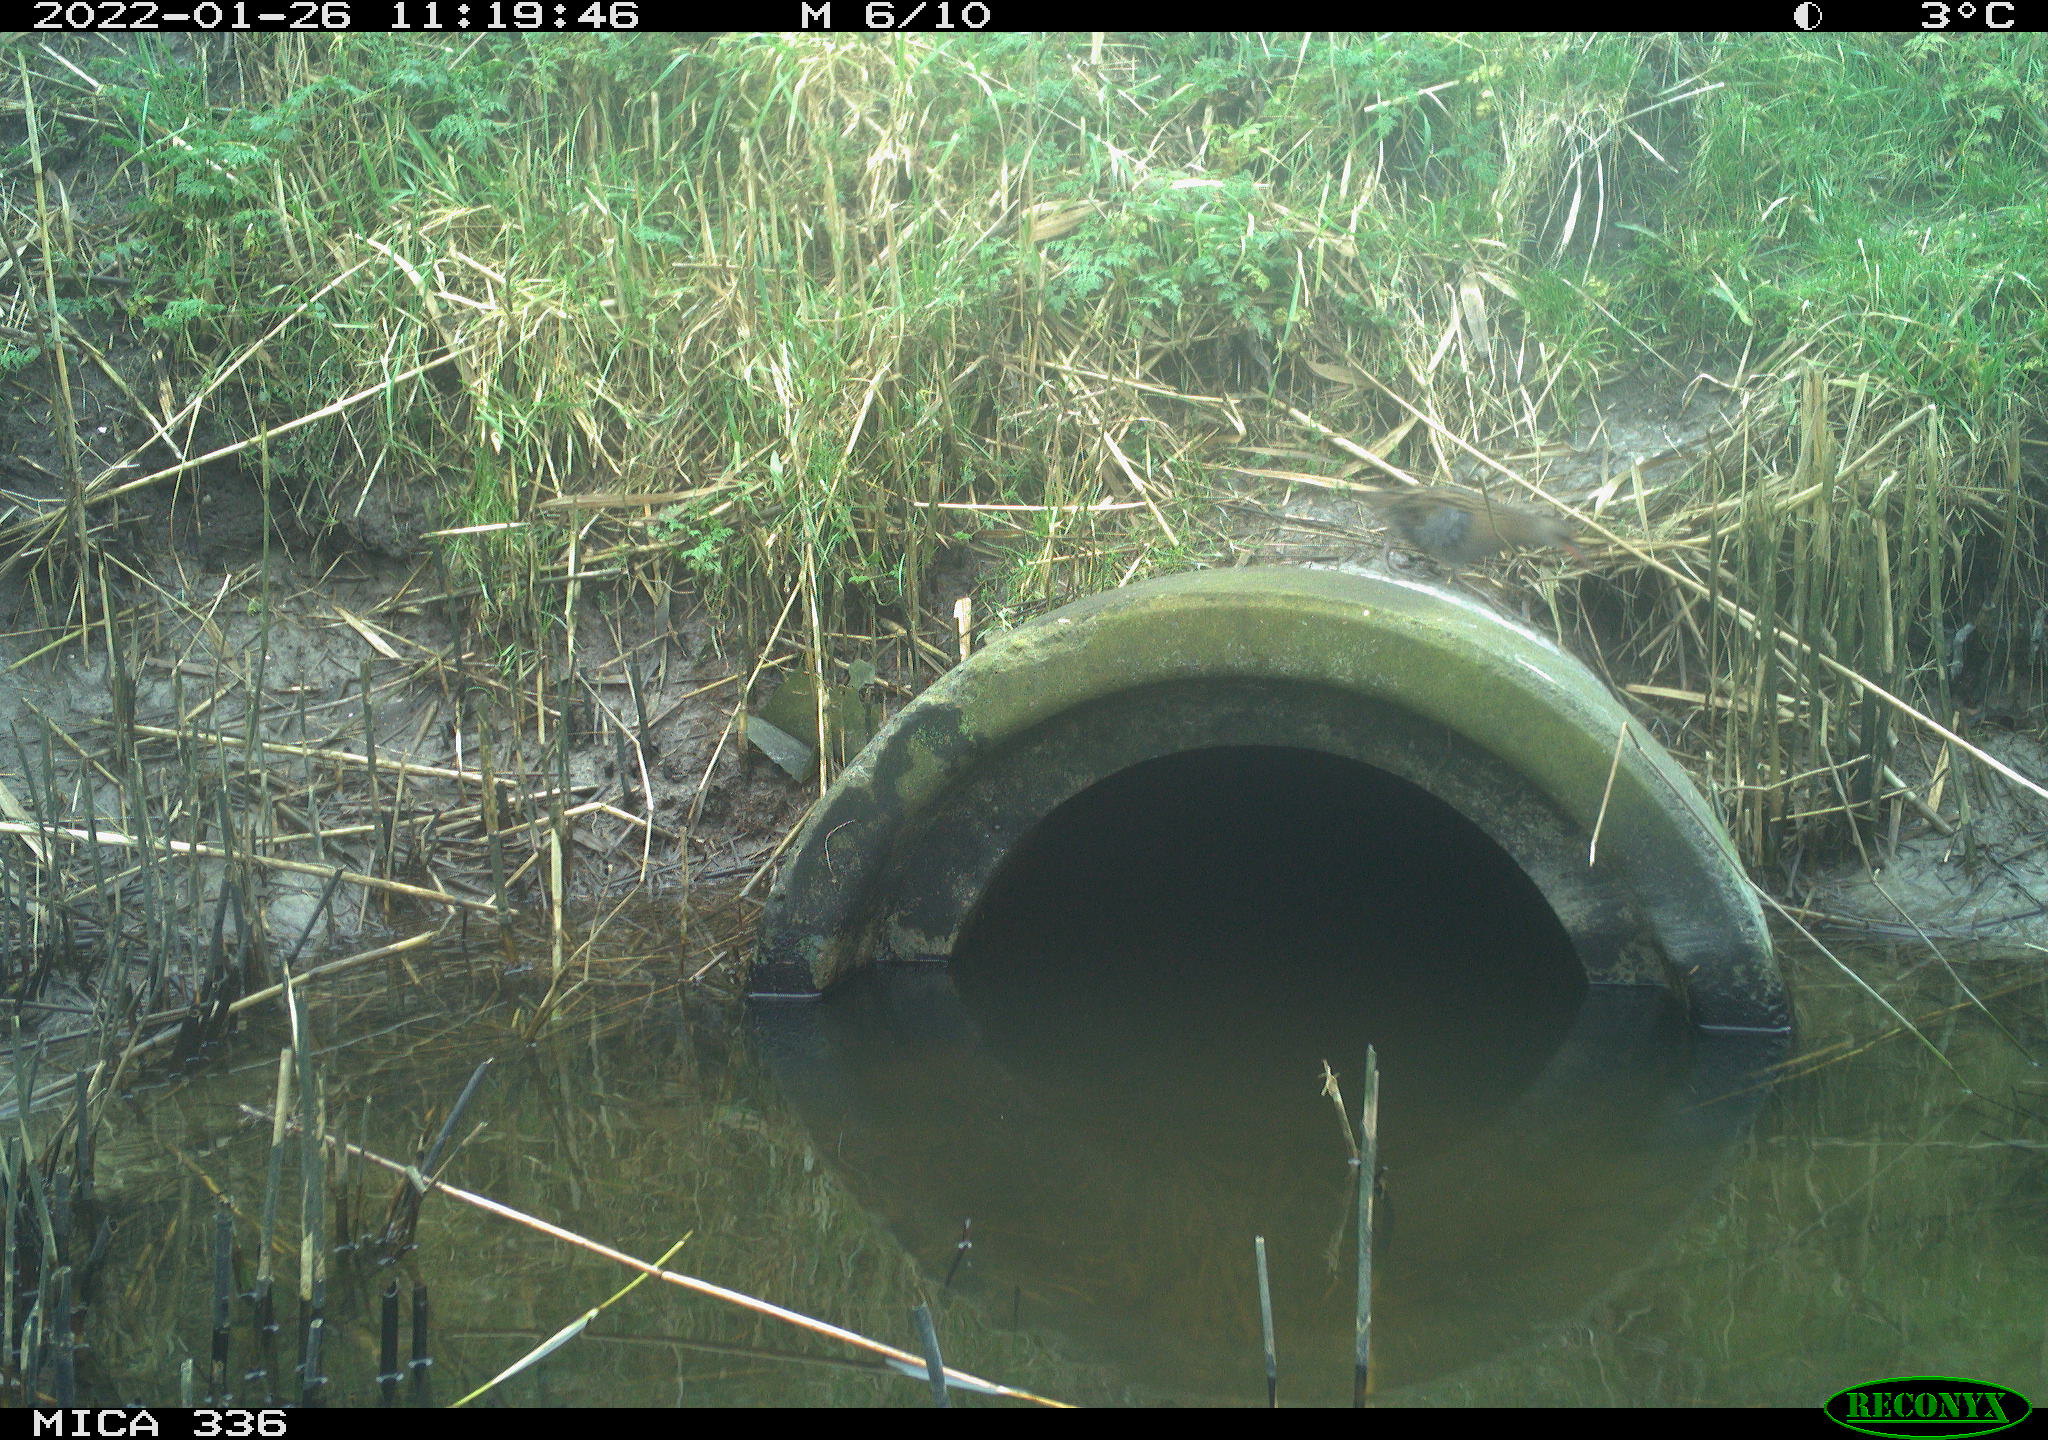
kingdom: Animalia
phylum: Chordata
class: Aves
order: Gruiformes
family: Rallidae
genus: Gallinula
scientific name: Gallinula chloropus
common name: Common moorhen
